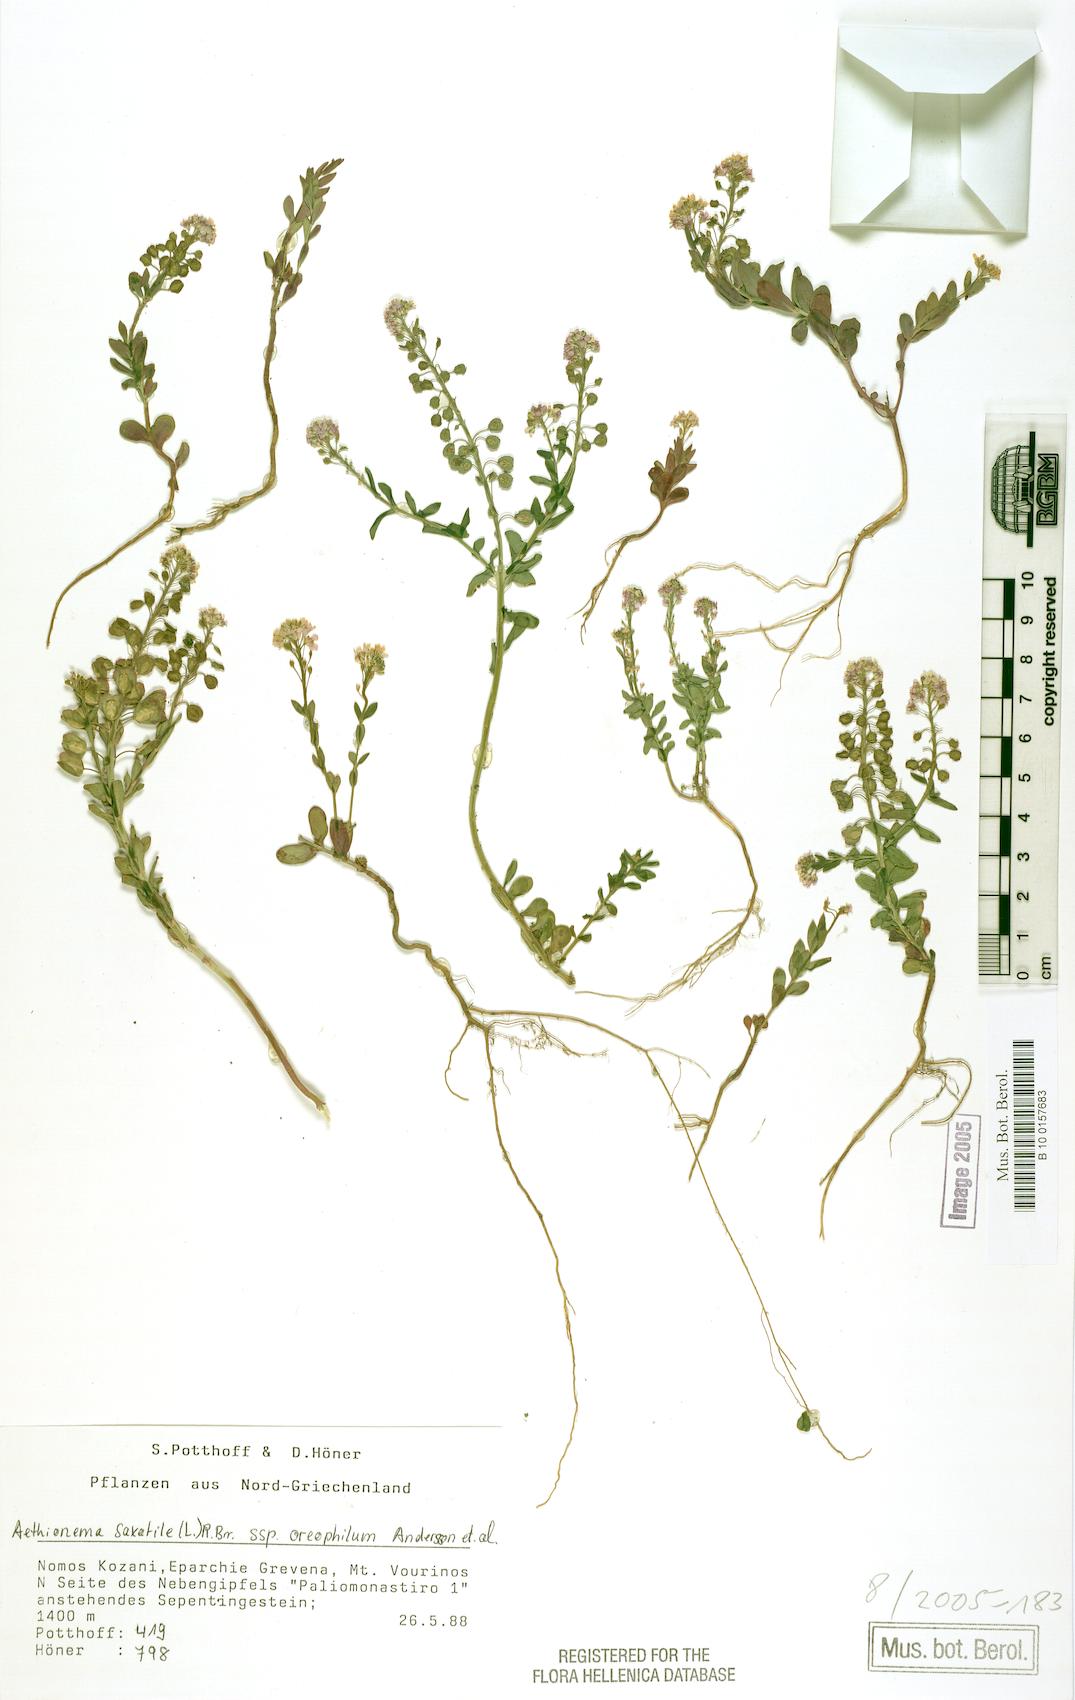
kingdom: Plantae
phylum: Tracheophyta
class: Magnoliopsida
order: Brassicales
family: Brassicaceae
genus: Aethionema
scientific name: Aethionema saxatile
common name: Burnt candytuft
